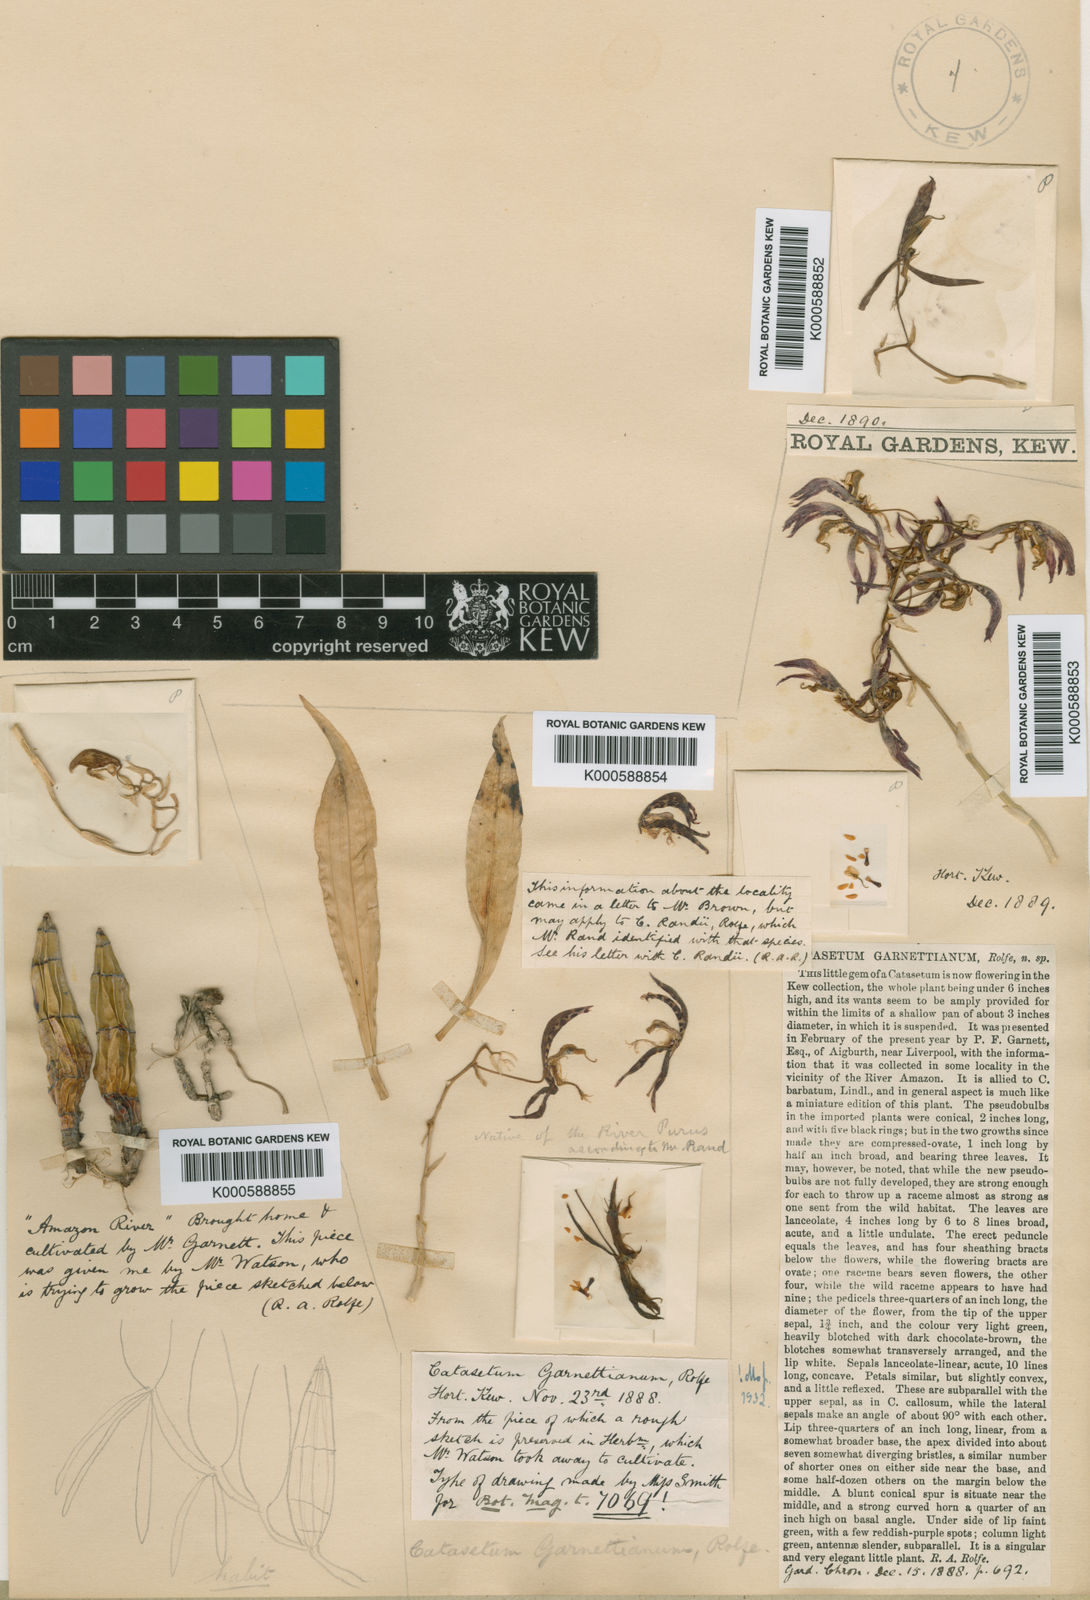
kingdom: Plantae
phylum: Tracheophyta
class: Liliopsida
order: Asparagales
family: Orchidaceae
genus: Catasetum
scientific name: Catasetum barbatum
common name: Bearded catasetum
